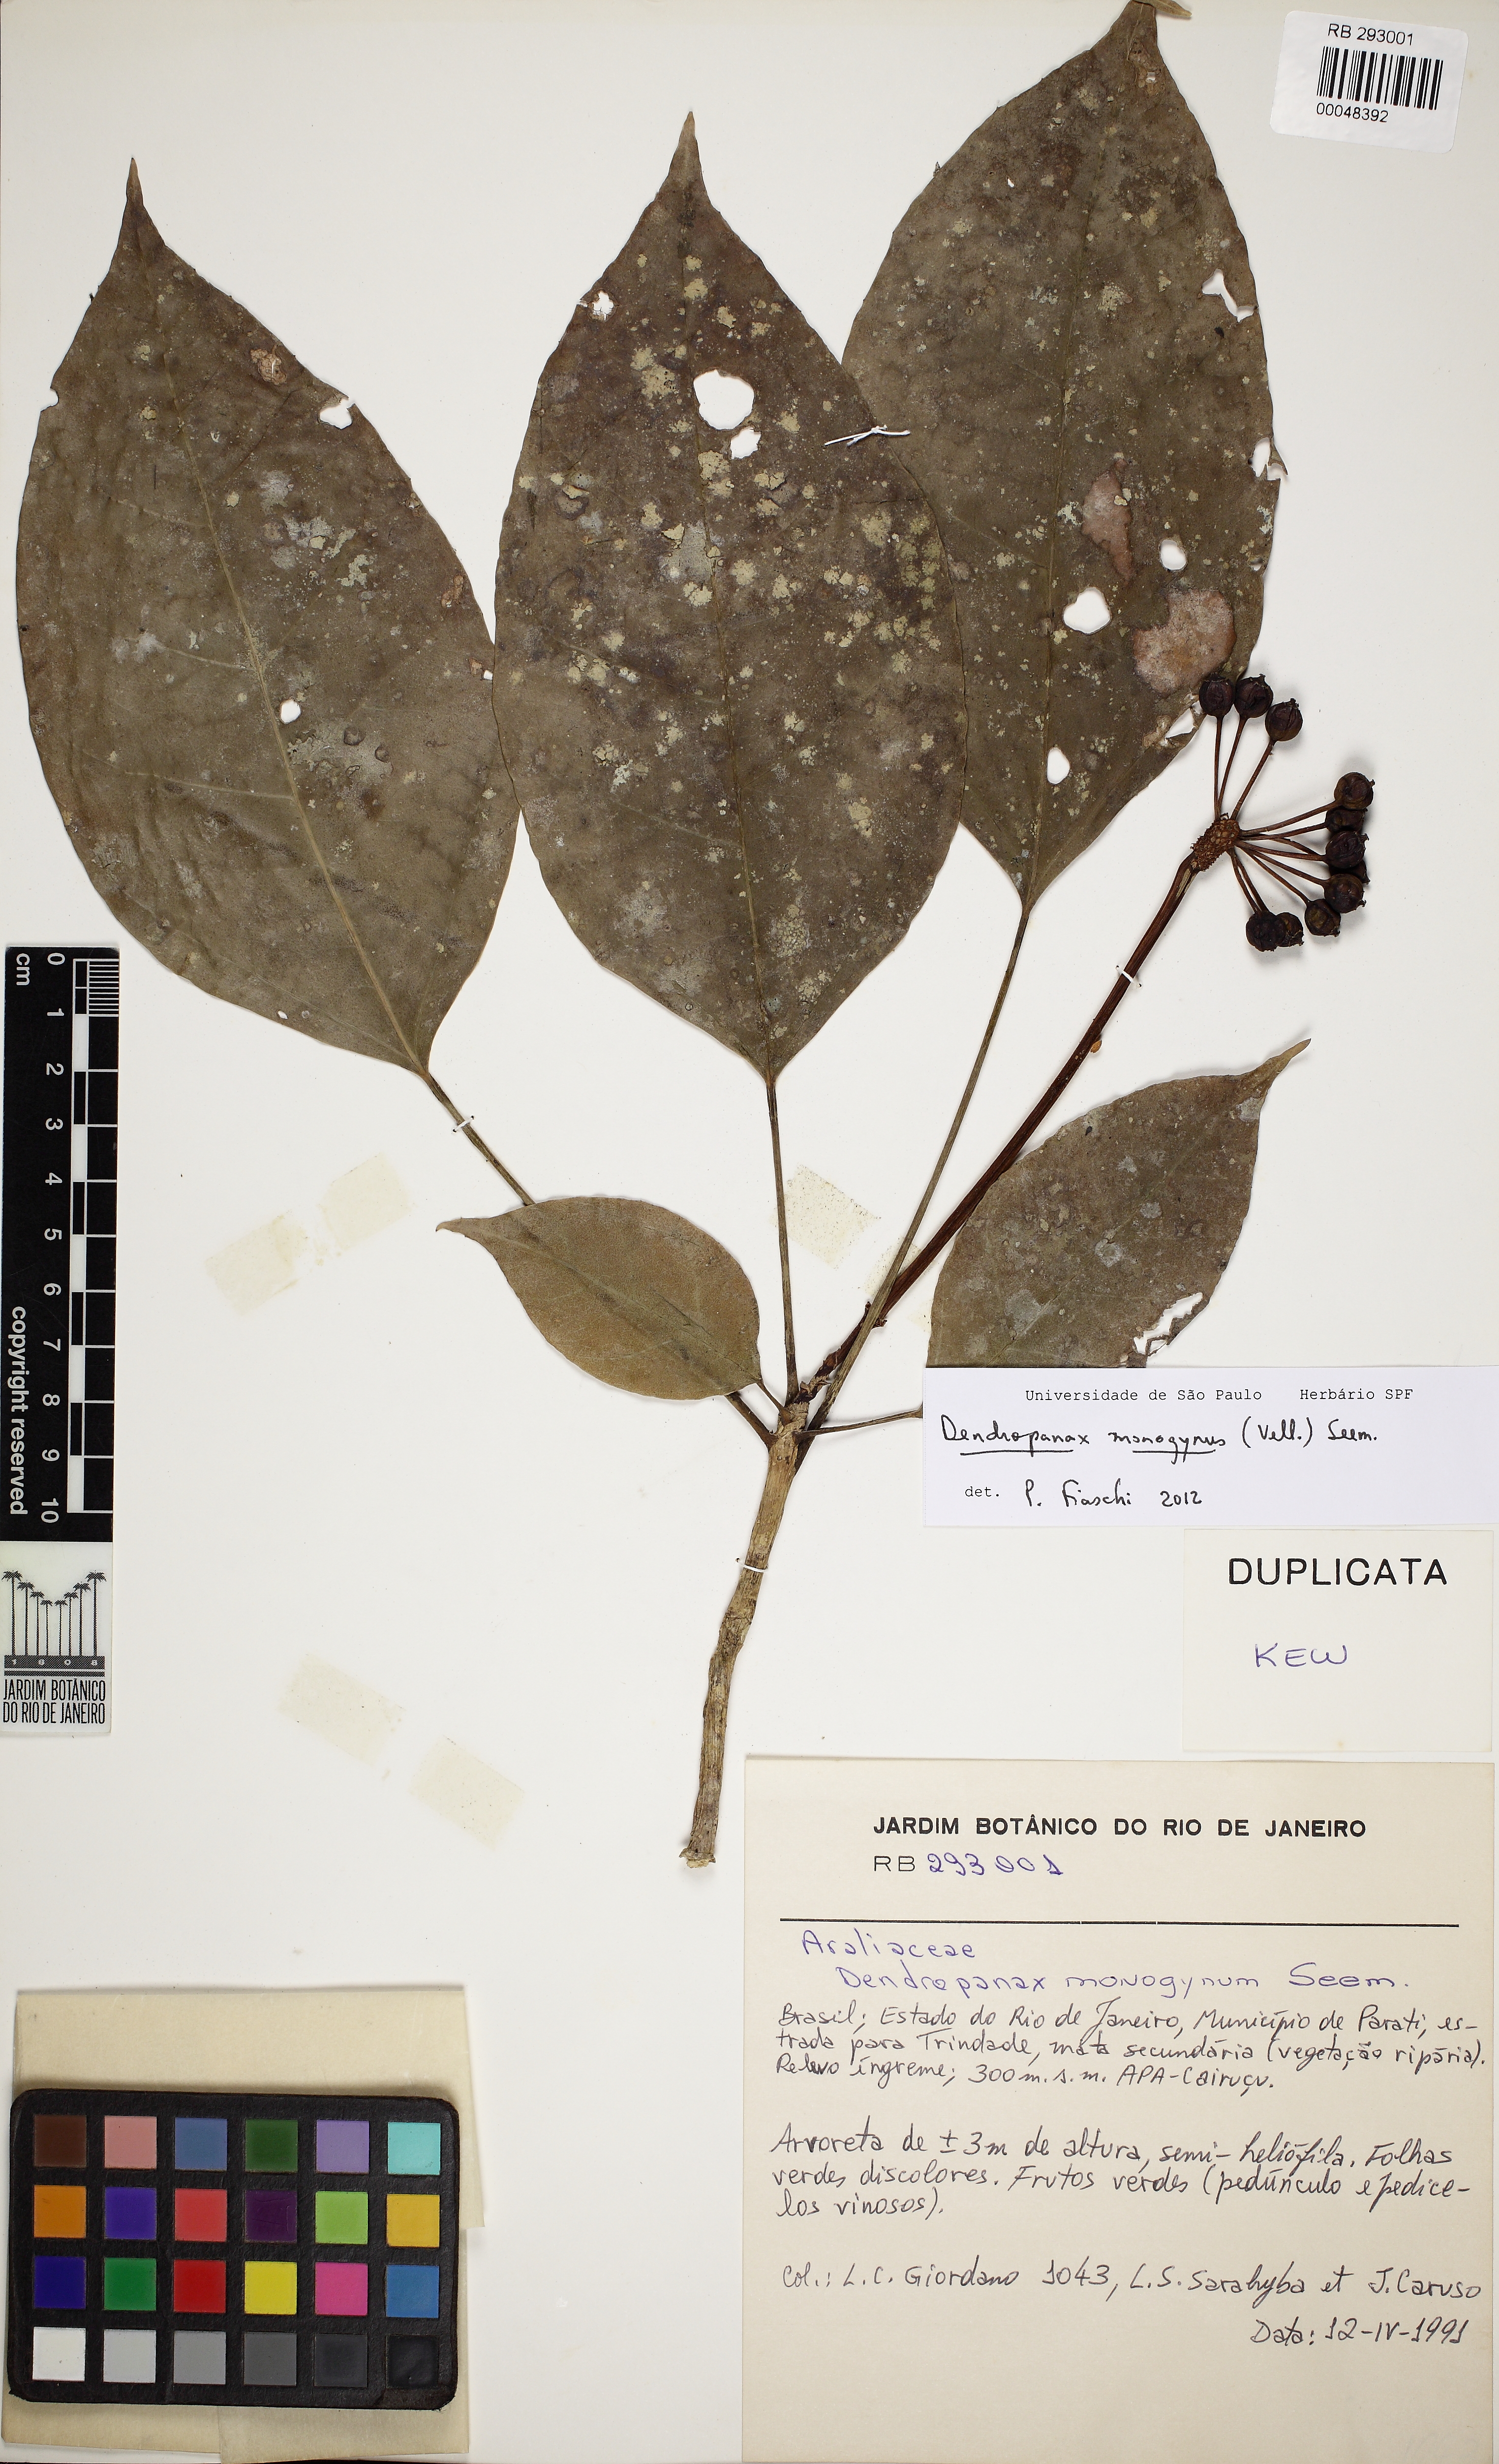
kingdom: Plantae
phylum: Tracheophyta
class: Magnoliopsida
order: Apiales
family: Araliaceae
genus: Dendropanax
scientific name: Dendropanax monogynus
